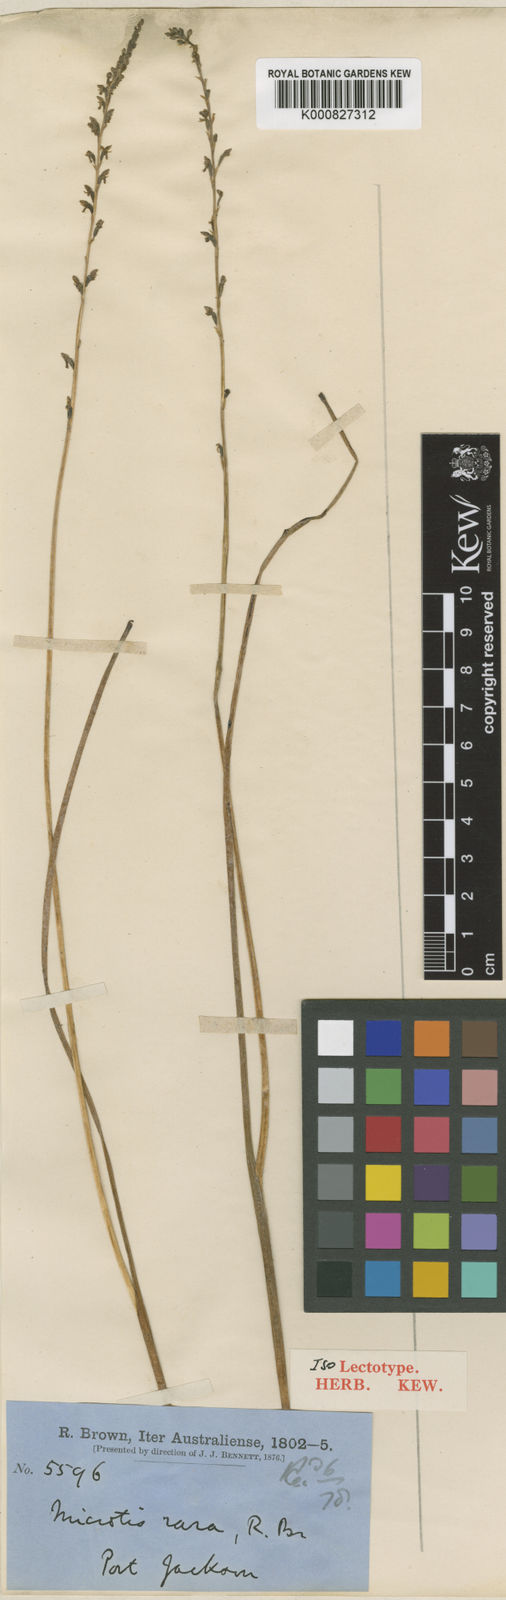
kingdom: Plantae
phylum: Tracheophyta
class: Liliopsida
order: Asparagales
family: Orchidaceae
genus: Microtis
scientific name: Microtis rara
